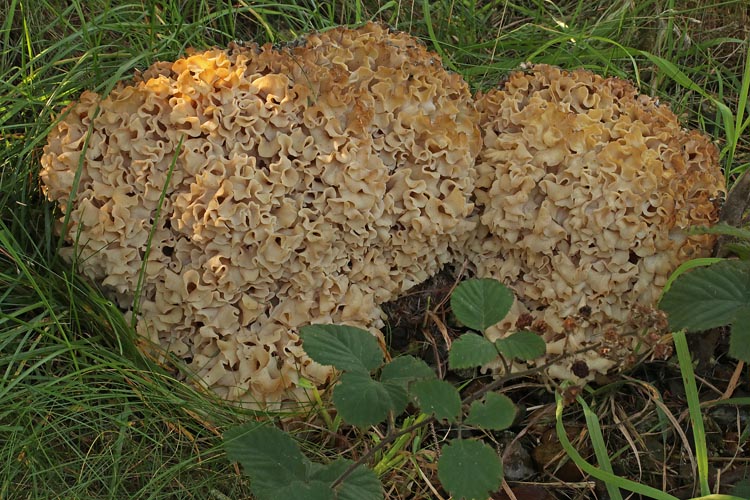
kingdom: Fungi
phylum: Basidiomycota
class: Agaricomycetes
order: Polyporales
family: Sparassidaceae
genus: Sparassis
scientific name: Sparassis crispa
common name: kruset blomkålssvamp
